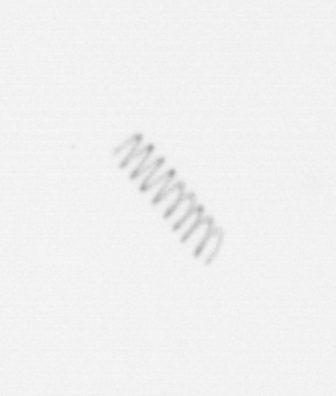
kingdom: Chromista
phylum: Ochrophyta
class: Bacillariophyceae
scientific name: Bacillariophyceae
